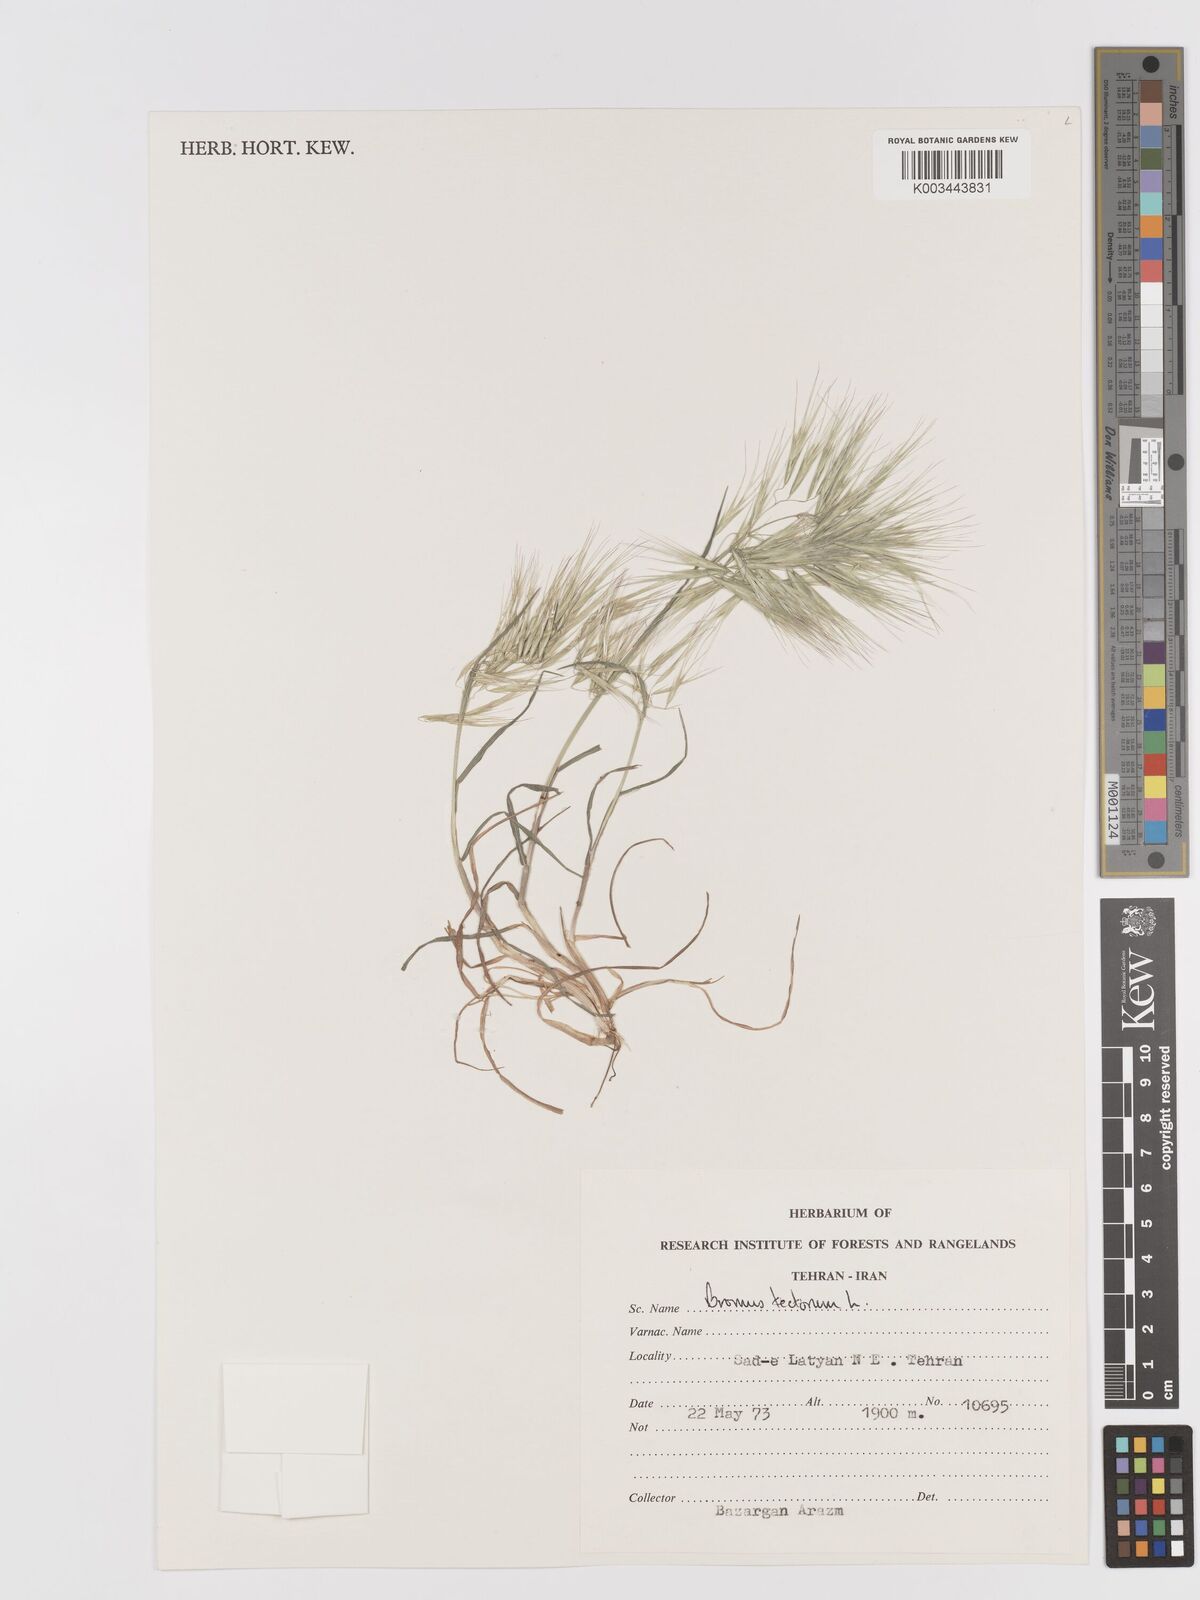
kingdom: Plantae
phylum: Tracheophyta
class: Liliopsida
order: Poales
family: Poaceae
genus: Bromus
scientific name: Bromus tectorum
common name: Cheatgrass
